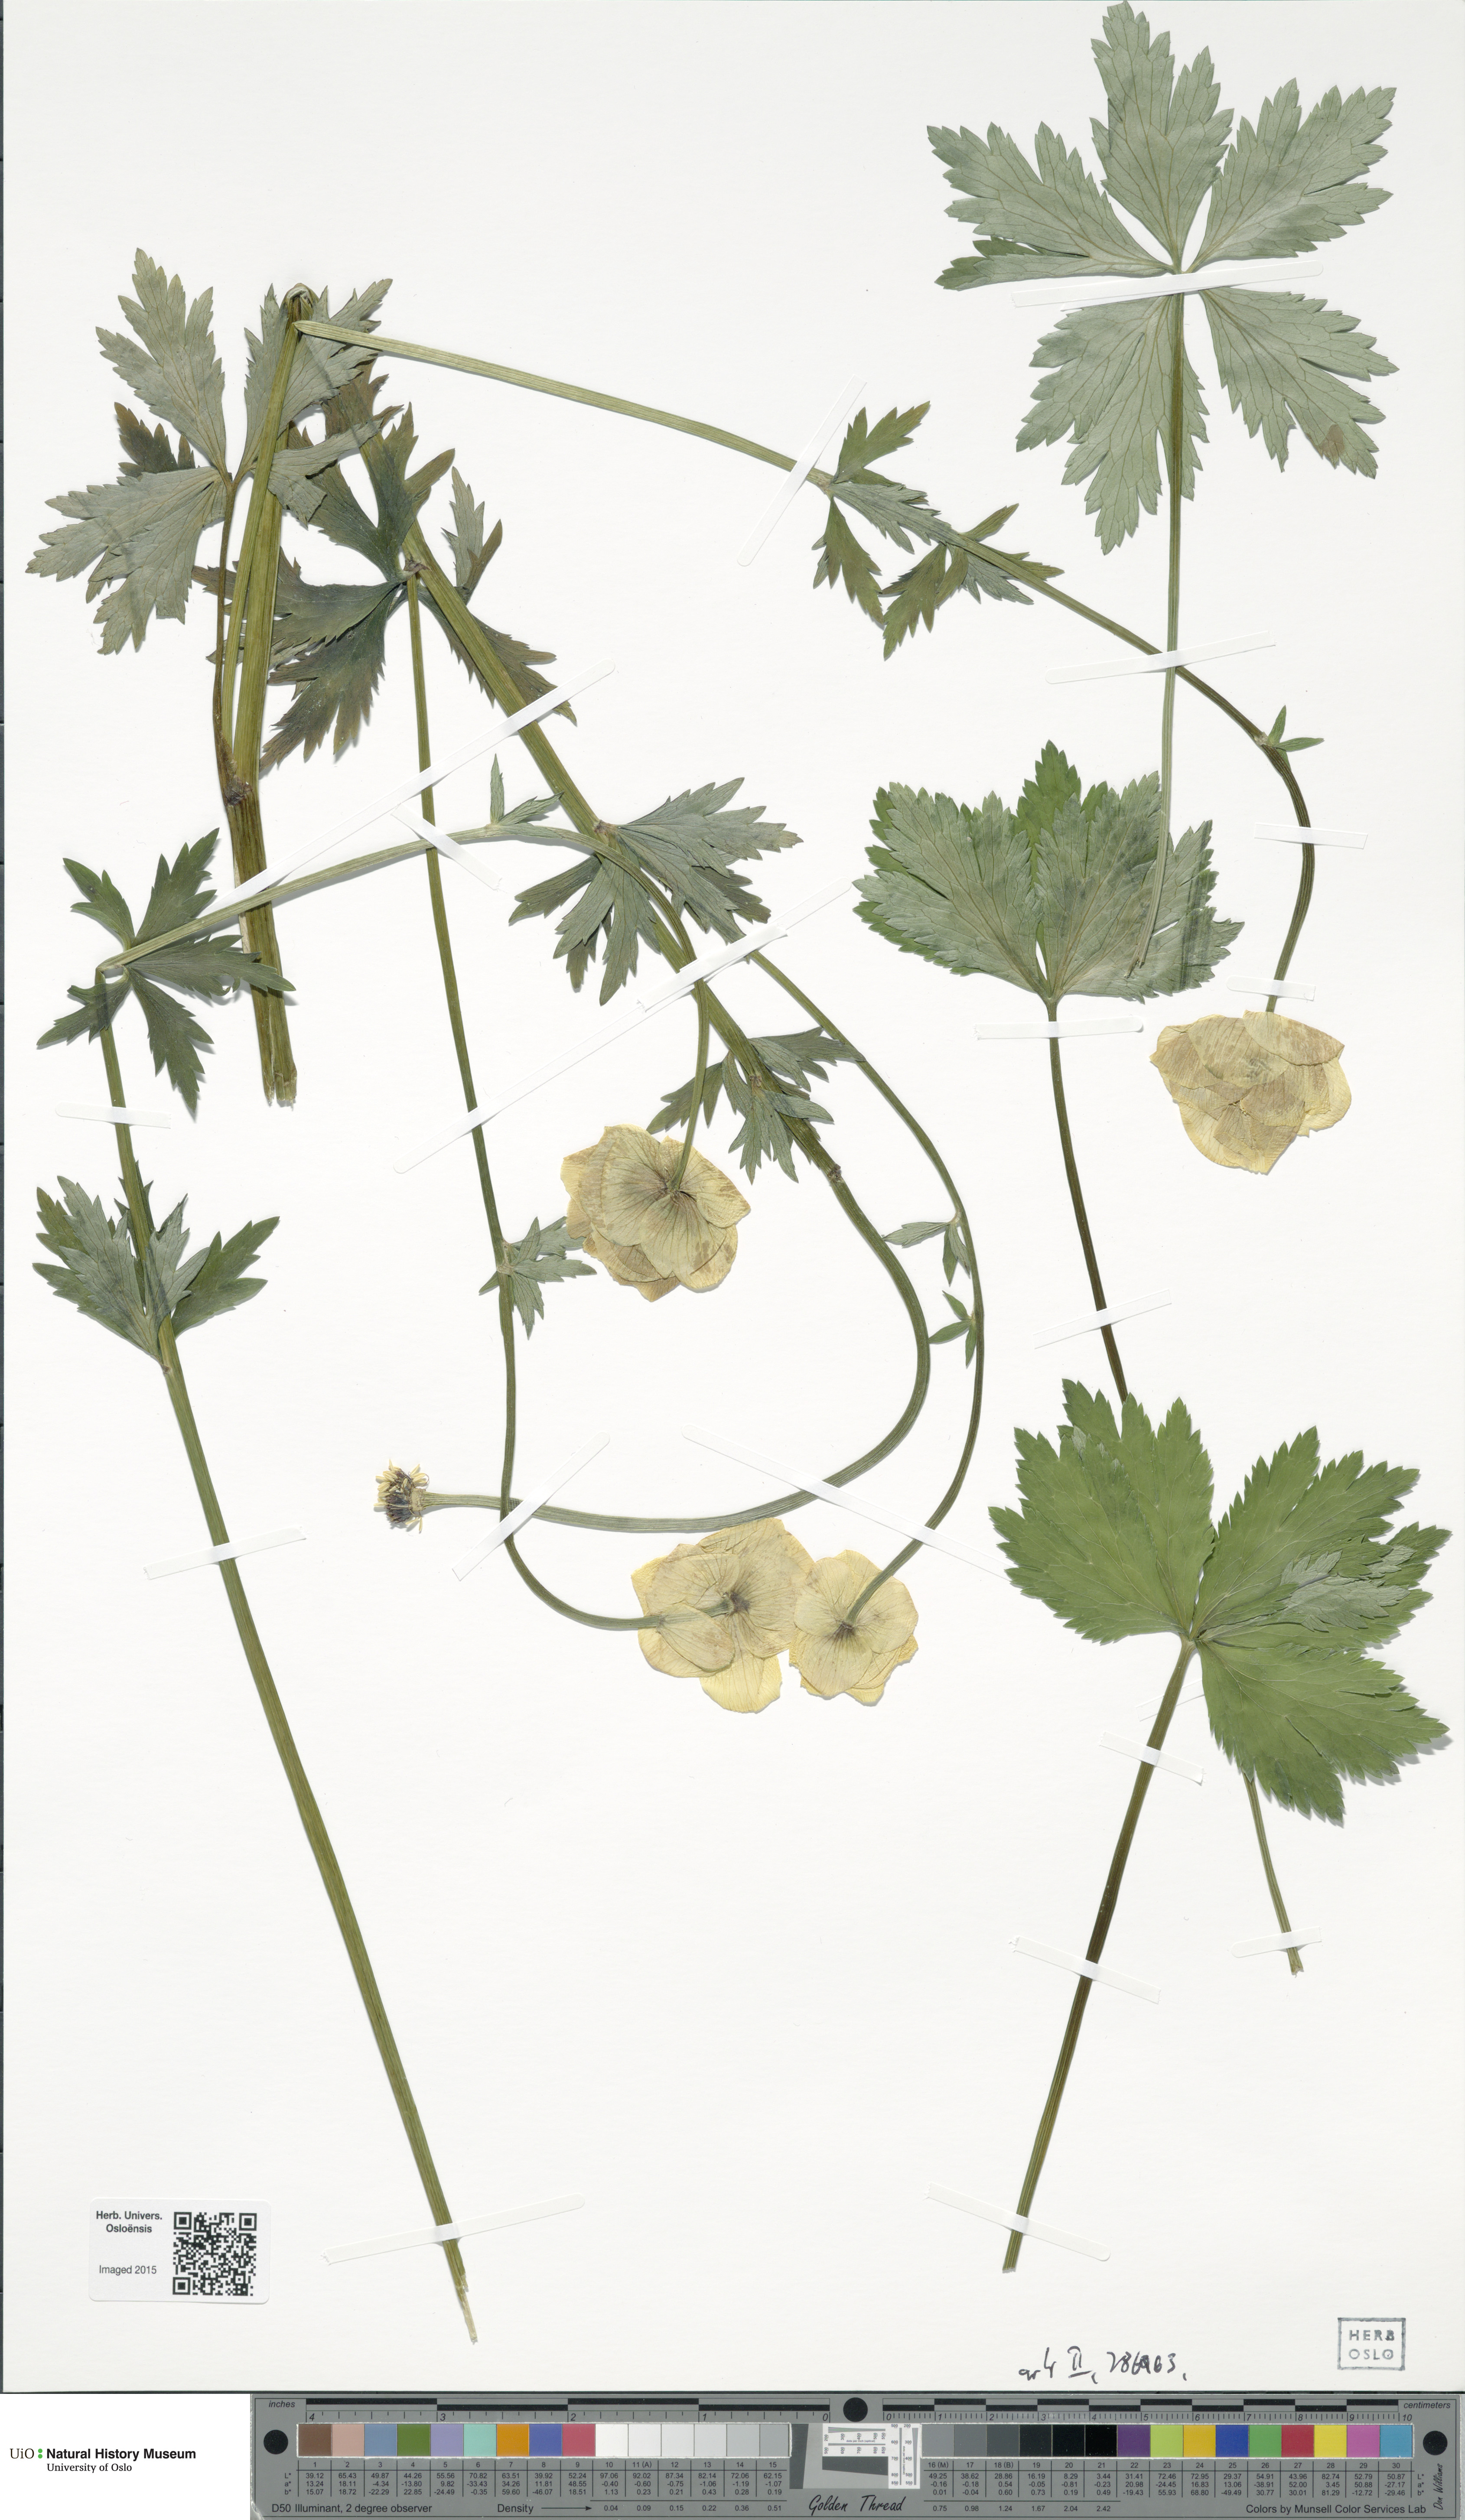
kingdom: Plantae
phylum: Tracheophyta
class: Magnoliopsida
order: Ranunculales
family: Ranunculaceae
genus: Trollius
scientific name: Trollius europaeus
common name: European globeflower
